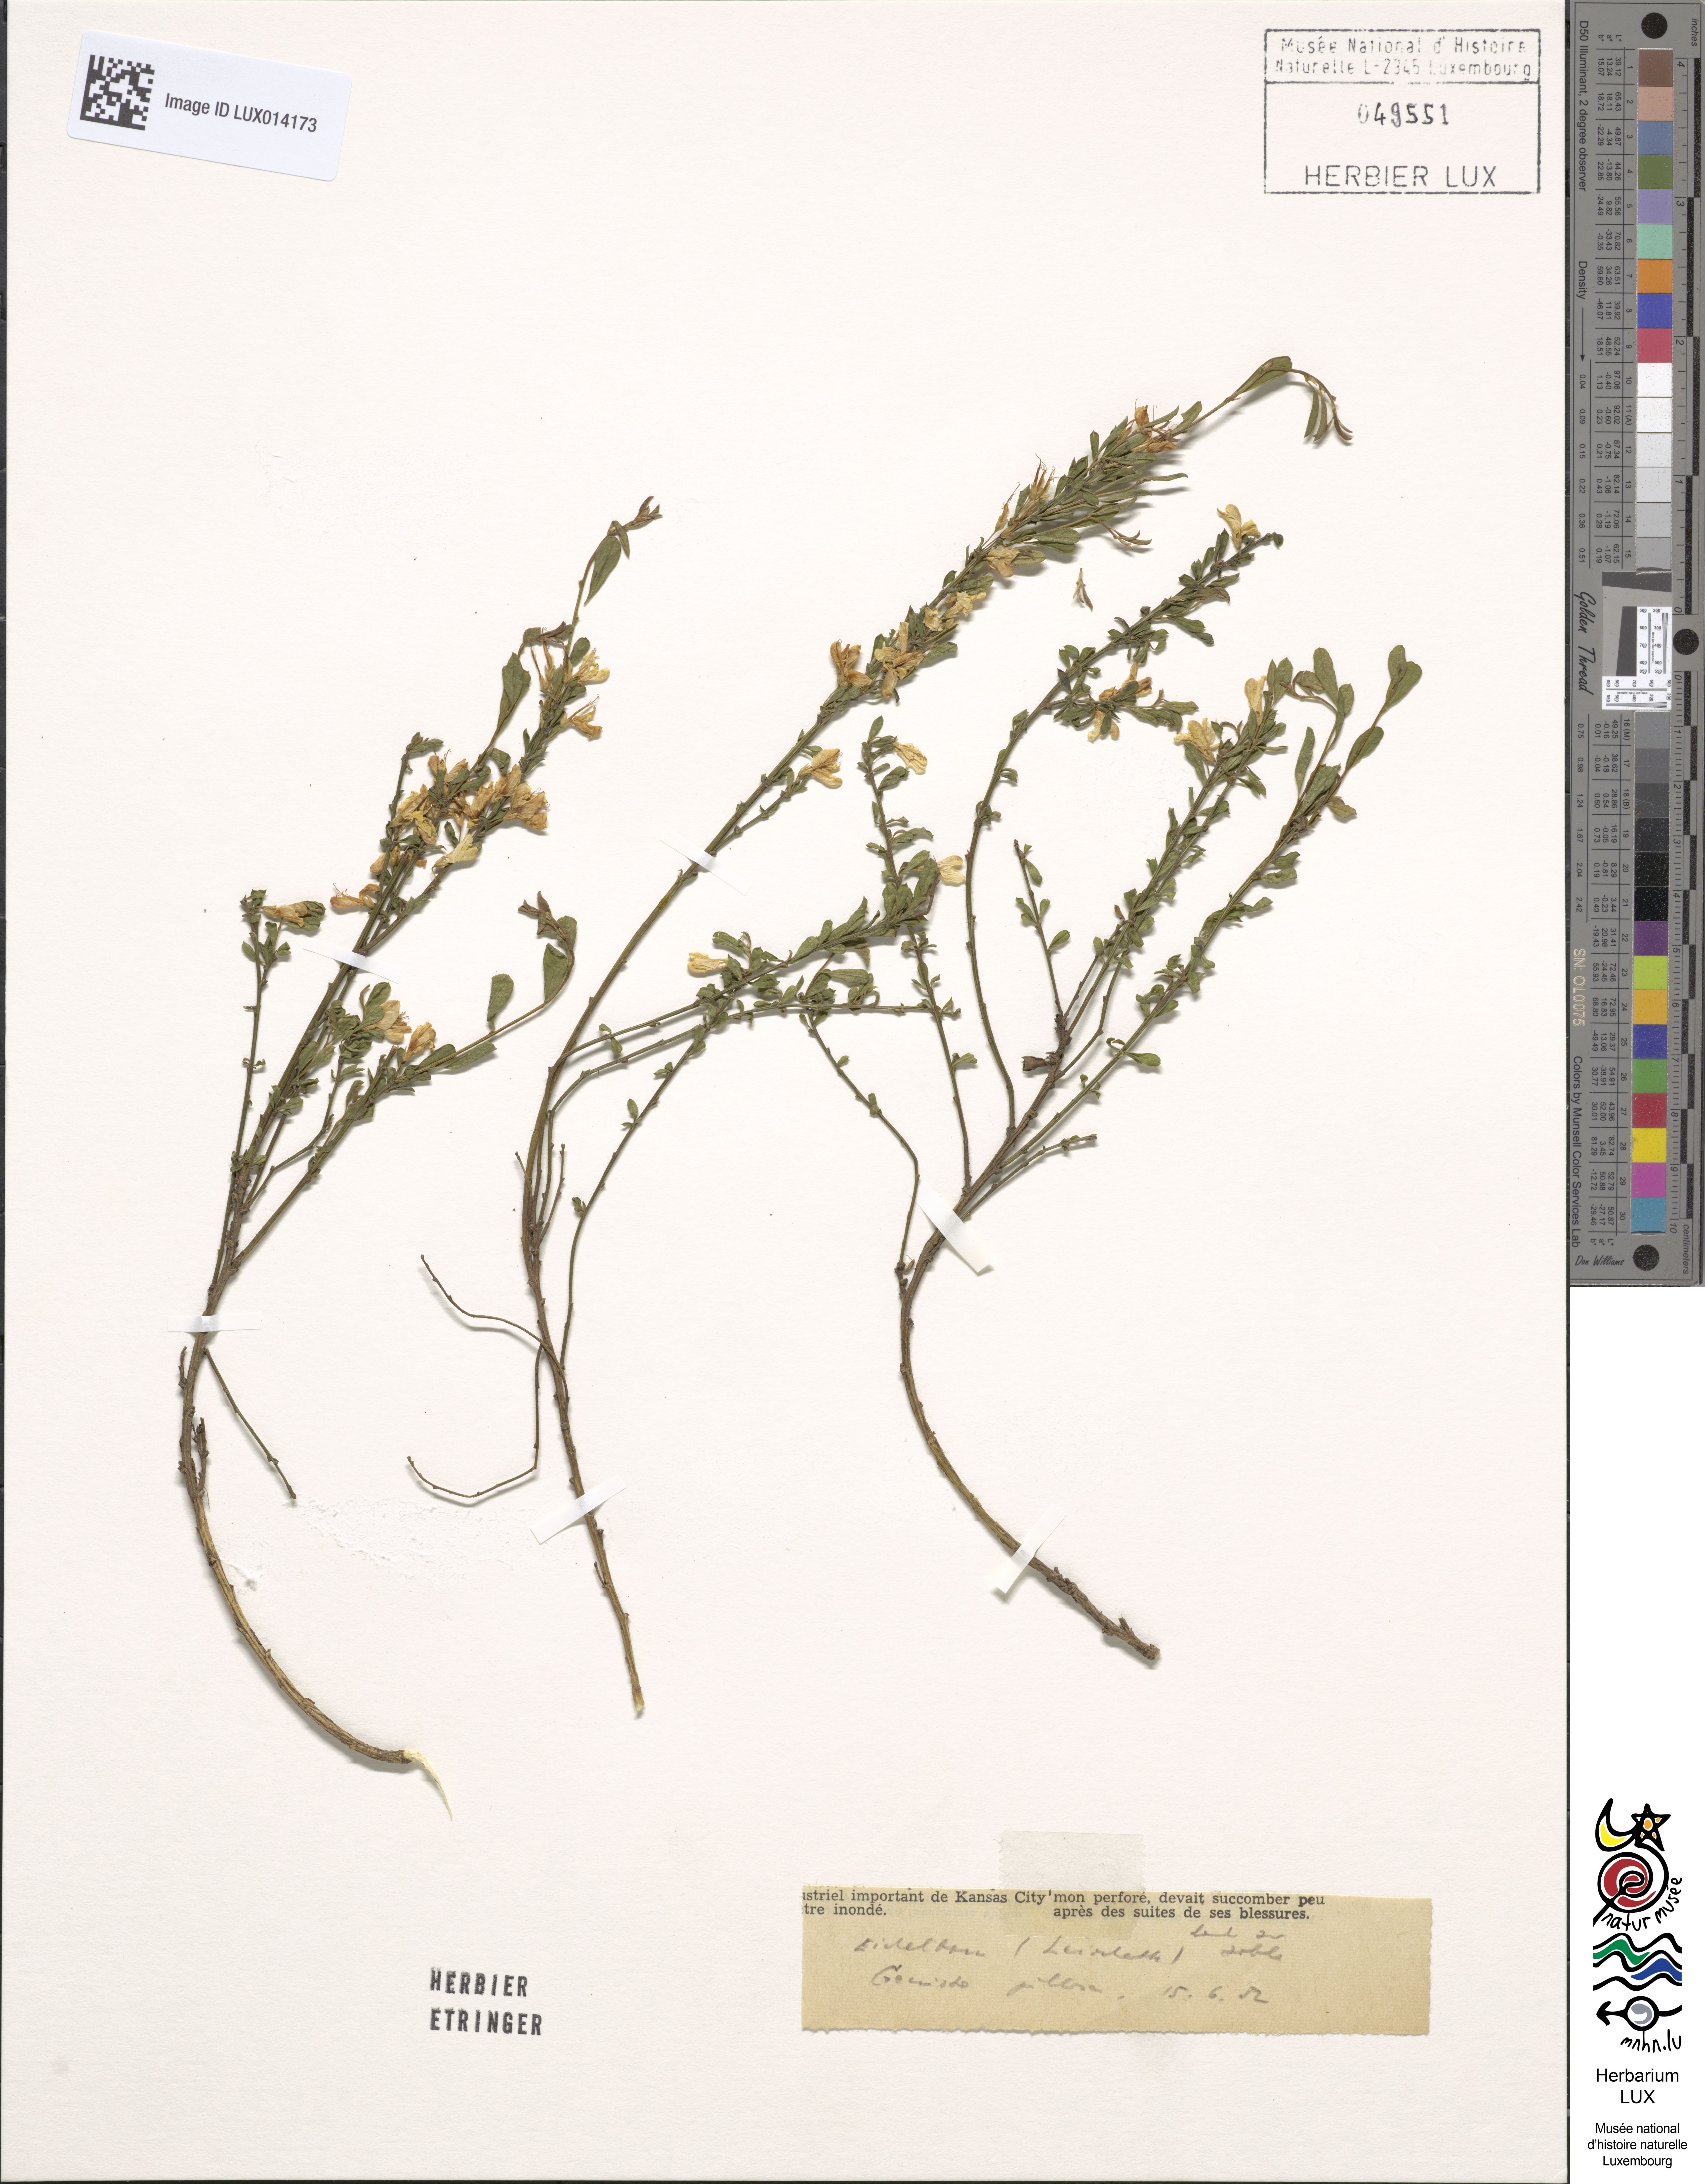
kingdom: Plantae
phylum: Tracheophyta
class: Magnoliopsida
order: Fabales
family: Fabaceae
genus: Genista
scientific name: Genista pilosa
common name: Hairy greenweed
